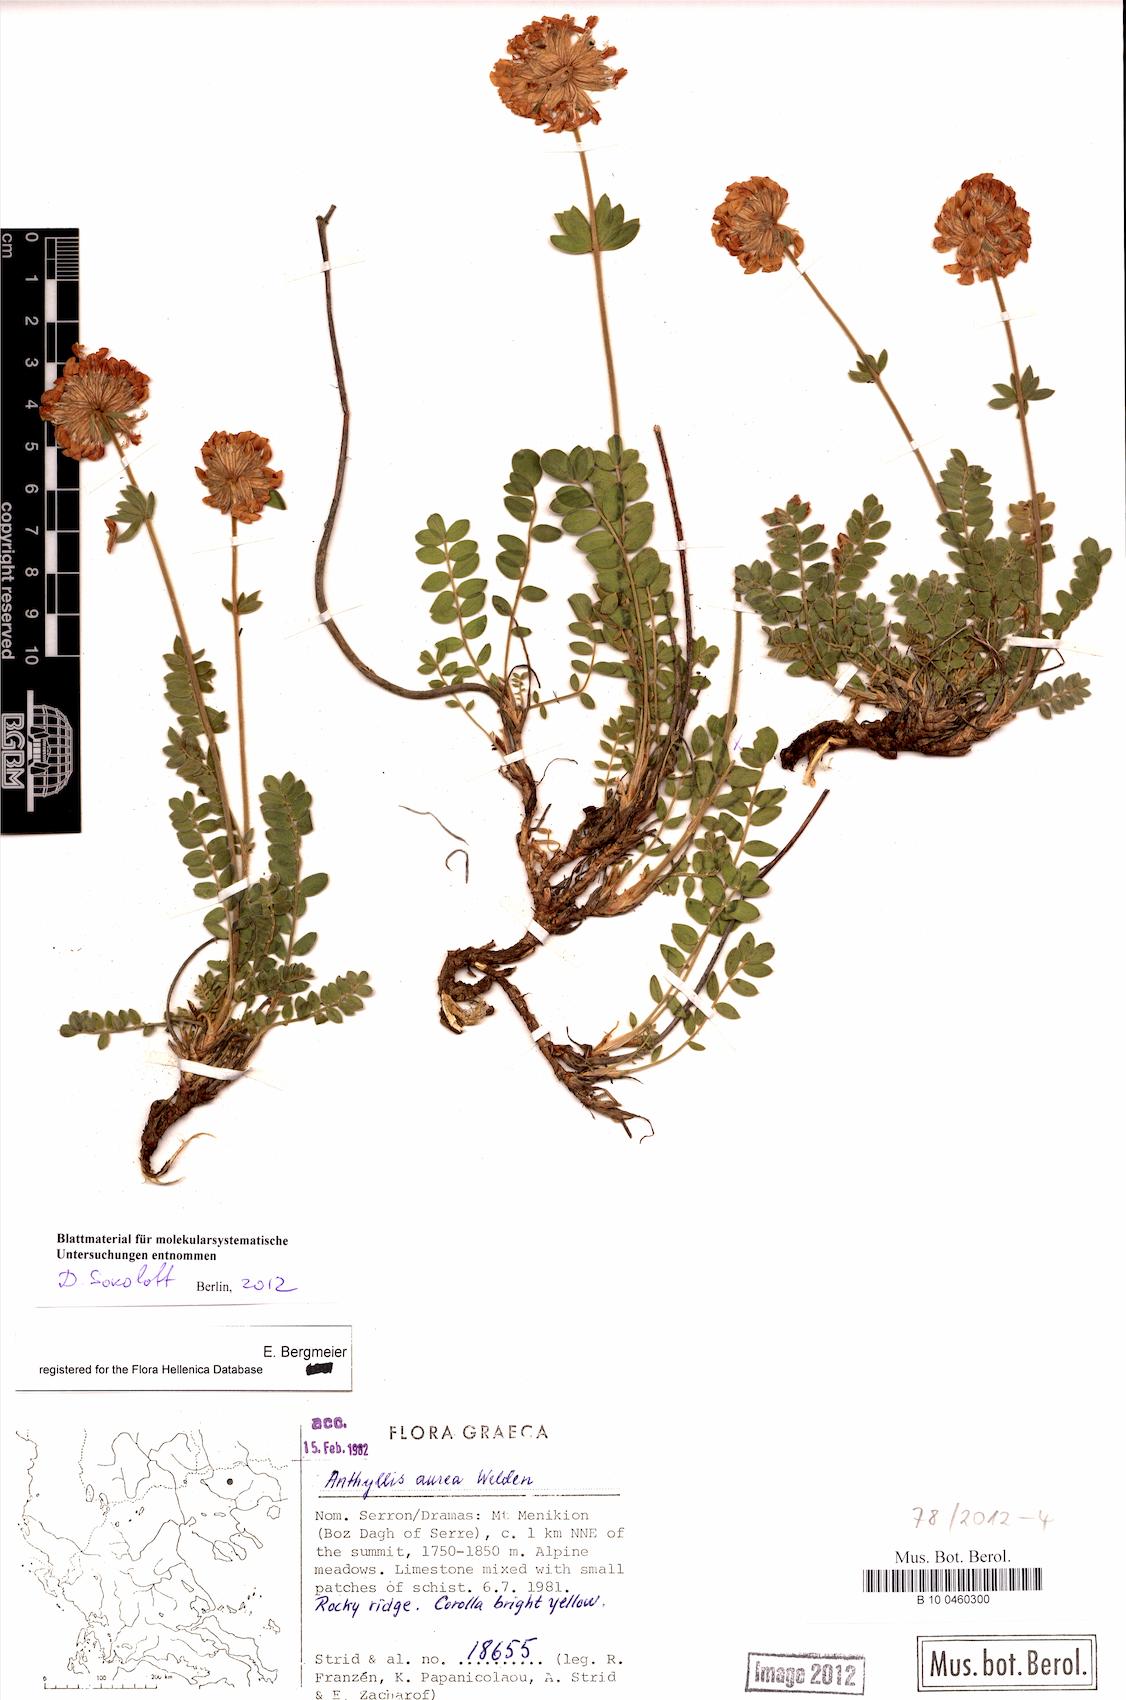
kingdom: Plantae
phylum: Tracheophyta
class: Magnoliopsida
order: Fabales
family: Fabaceae
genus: Anthyllis
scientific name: Anthyllis aurea
